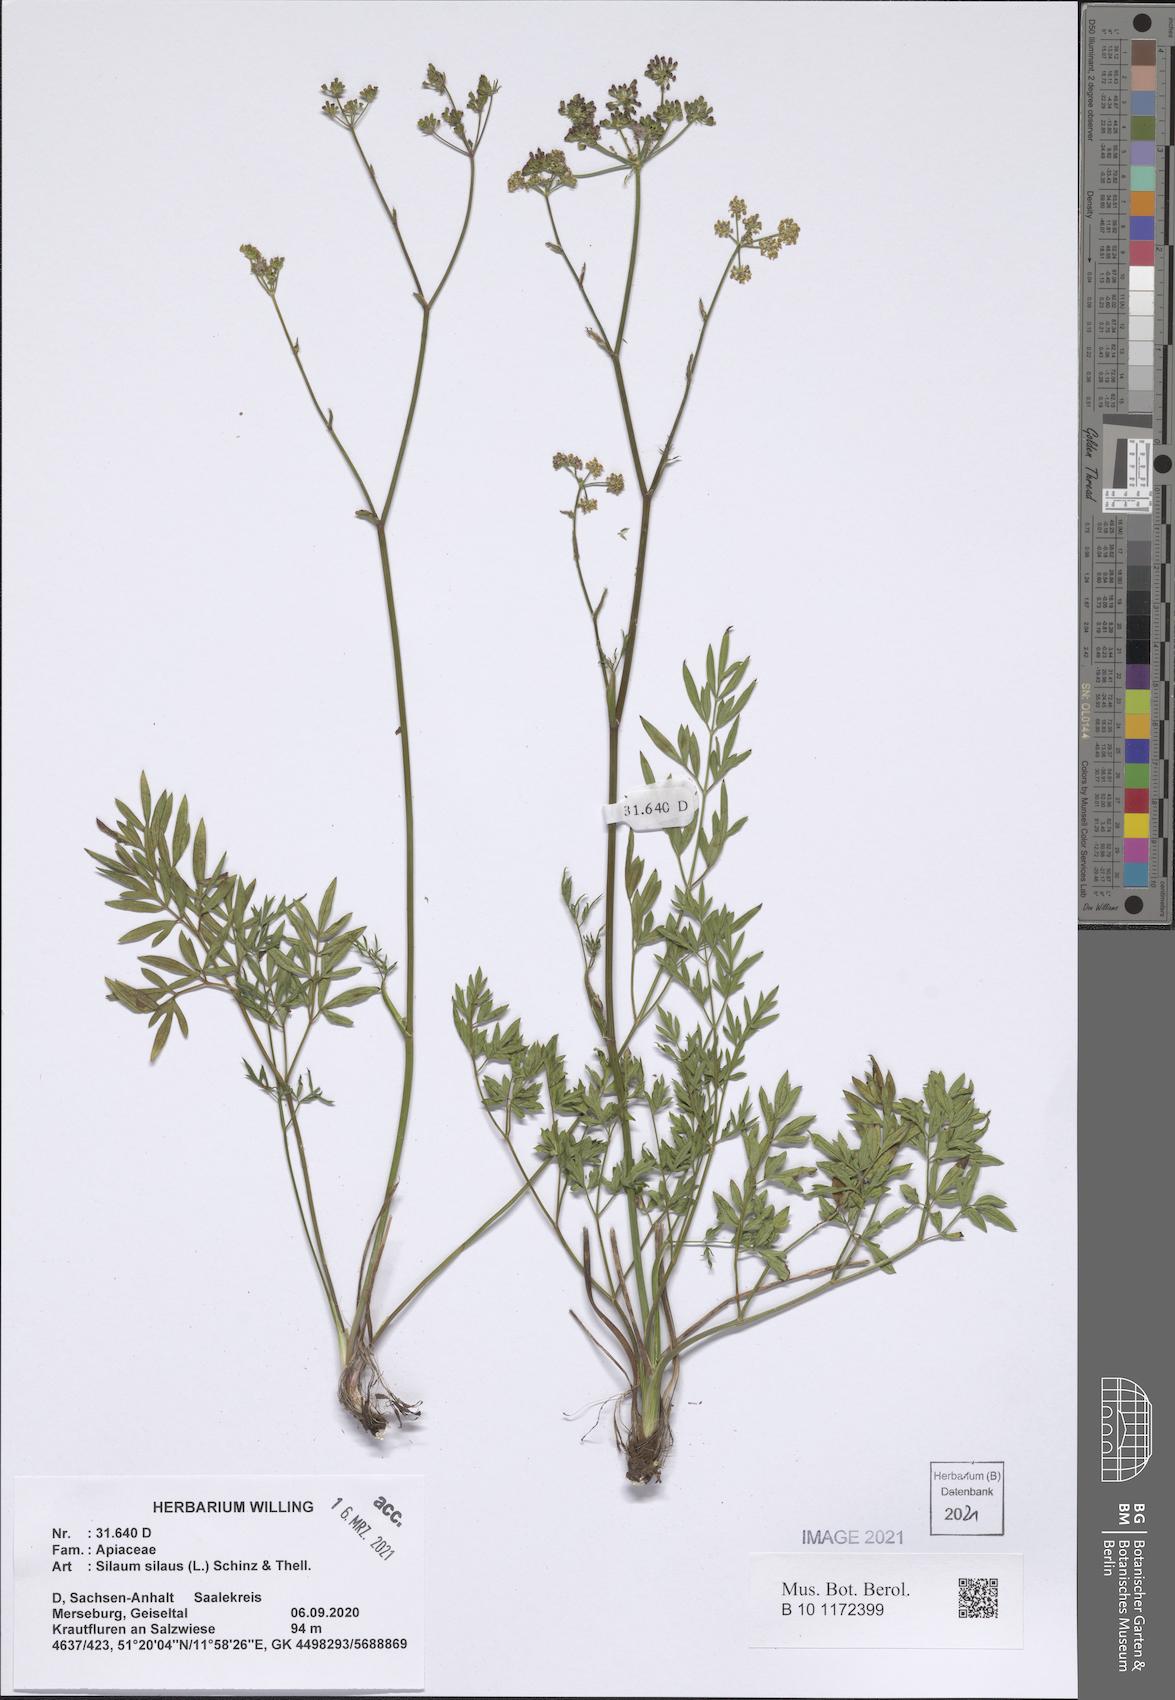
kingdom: Plantae
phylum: Tracheophyta
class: Magnoliopsida
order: Apiales
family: Apiaceae
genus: Silaum
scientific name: Silaum silaus
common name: Pepper-saxifrage
